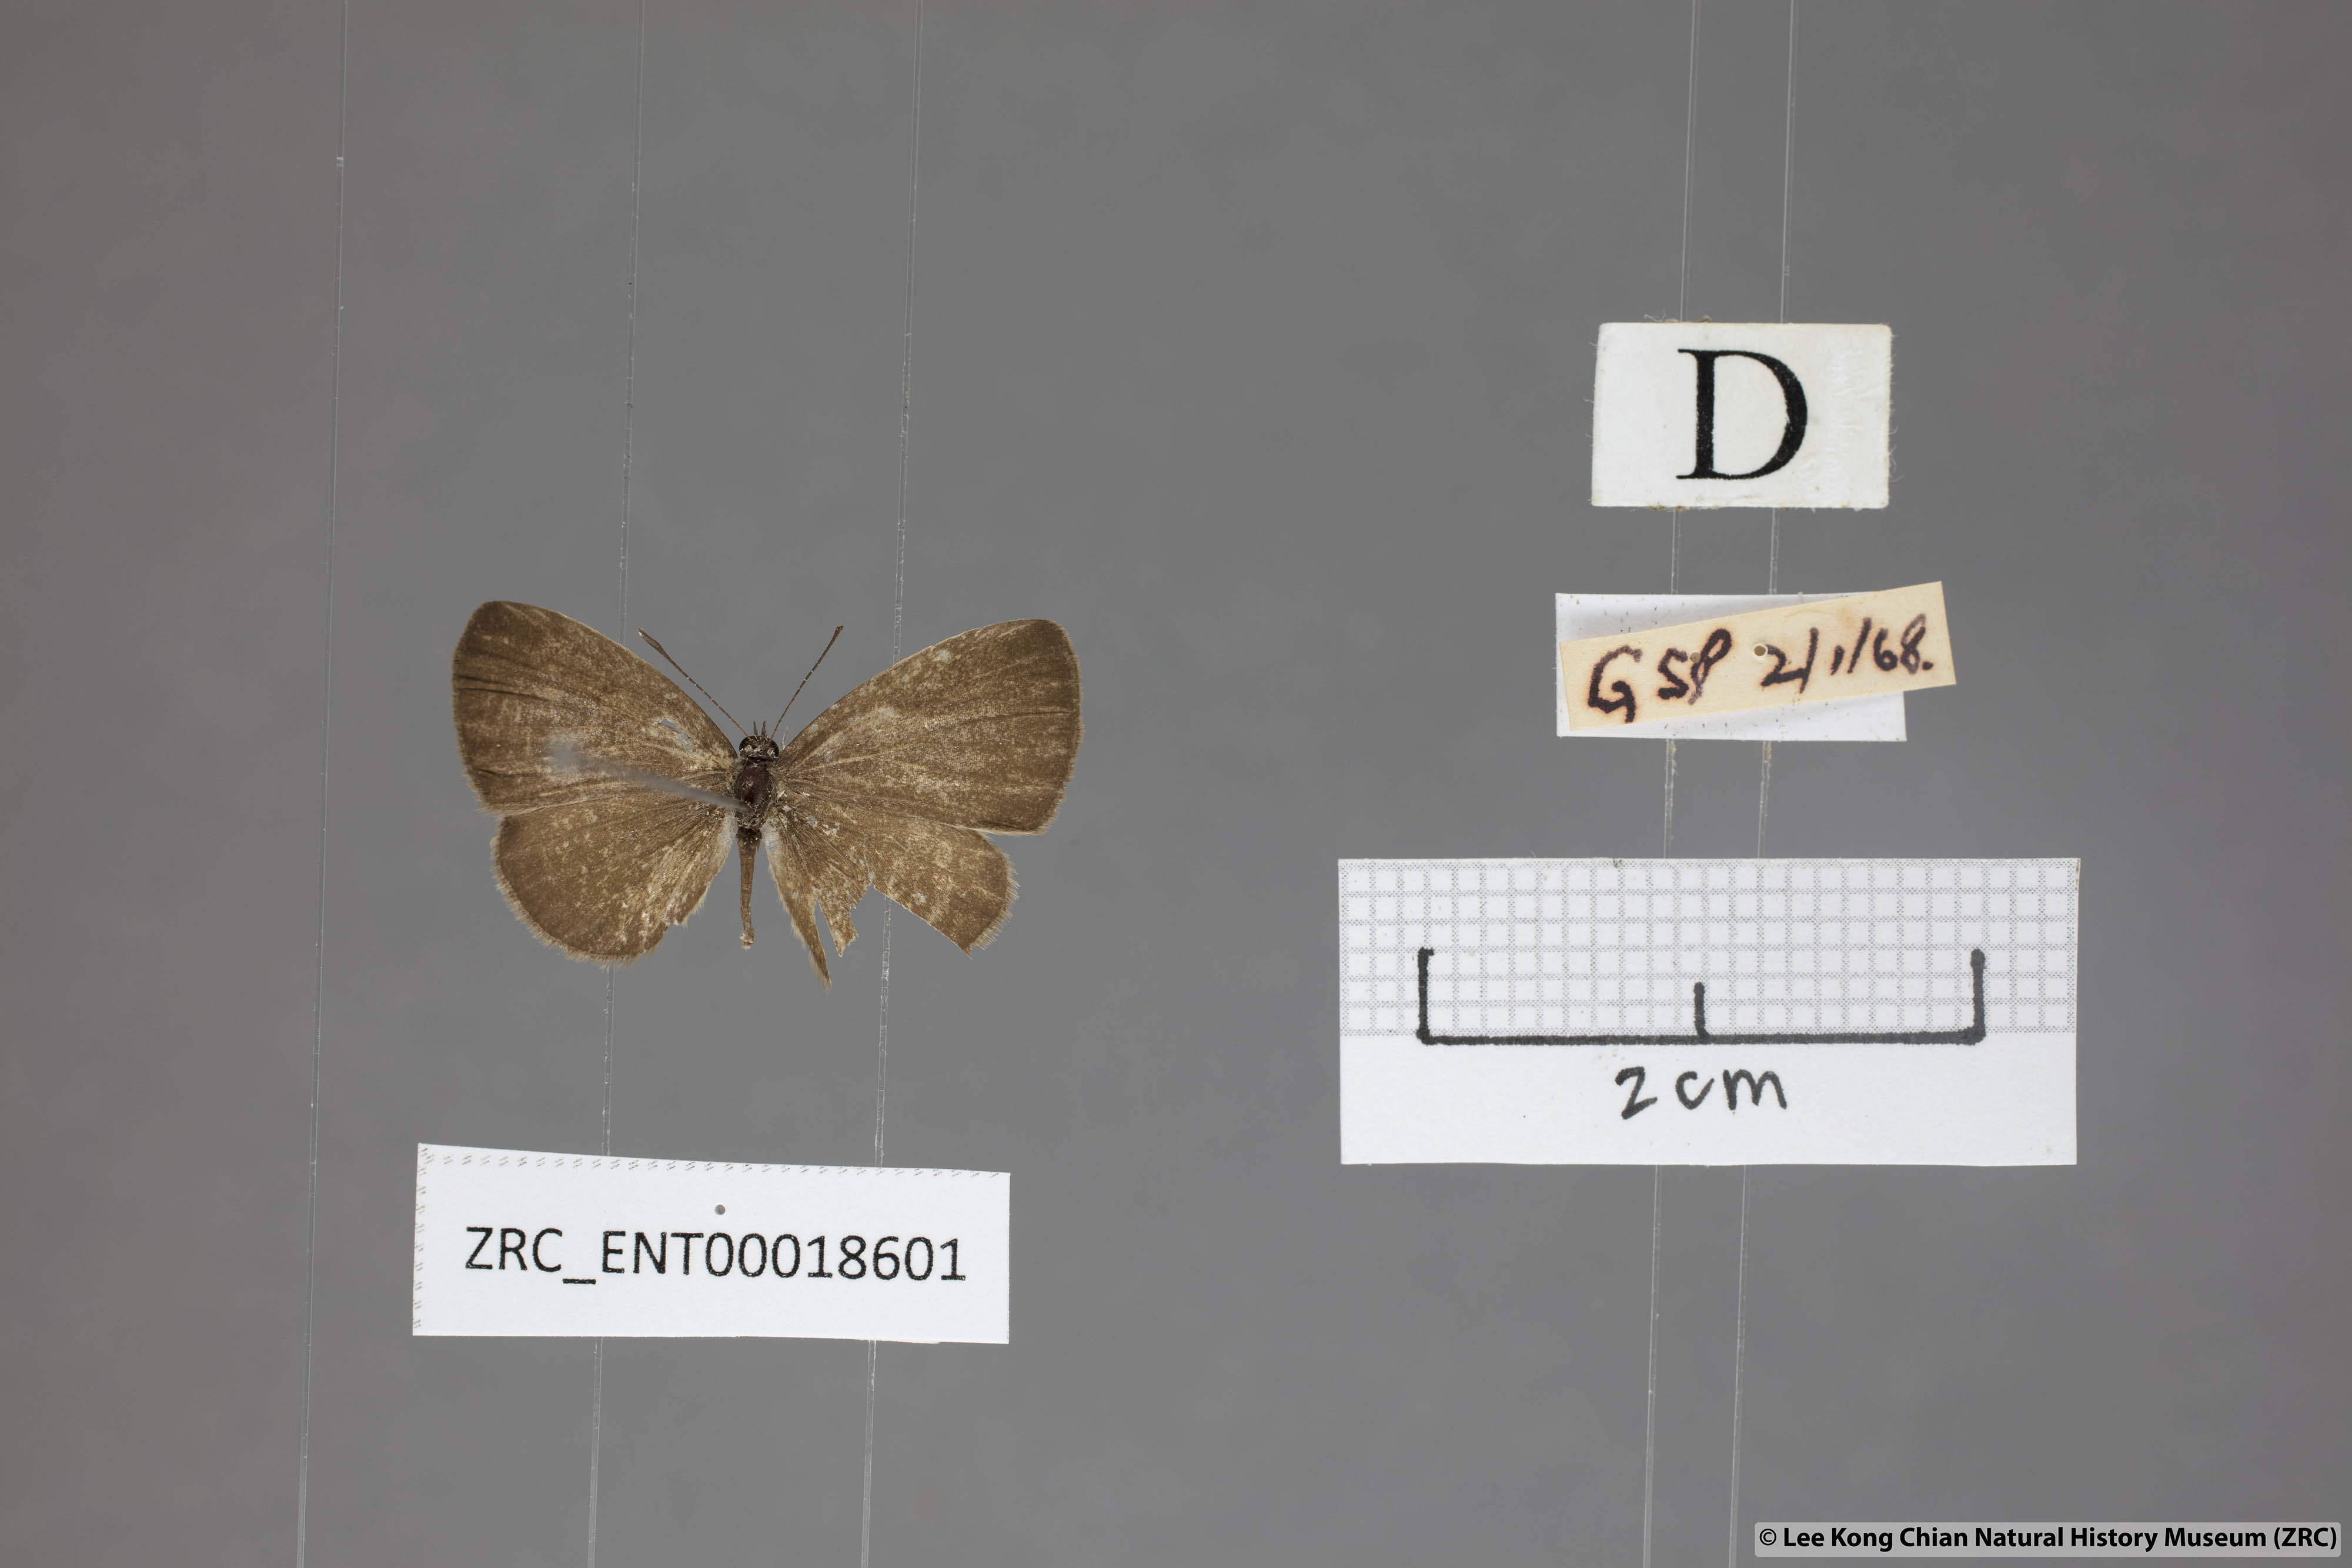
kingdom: Animalia
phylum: Arthropoda
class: Insecta
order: Lepidoptera
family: Lycaenidae
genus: Prosotas
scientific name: Prosotas lutea
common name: Brown lineblue
